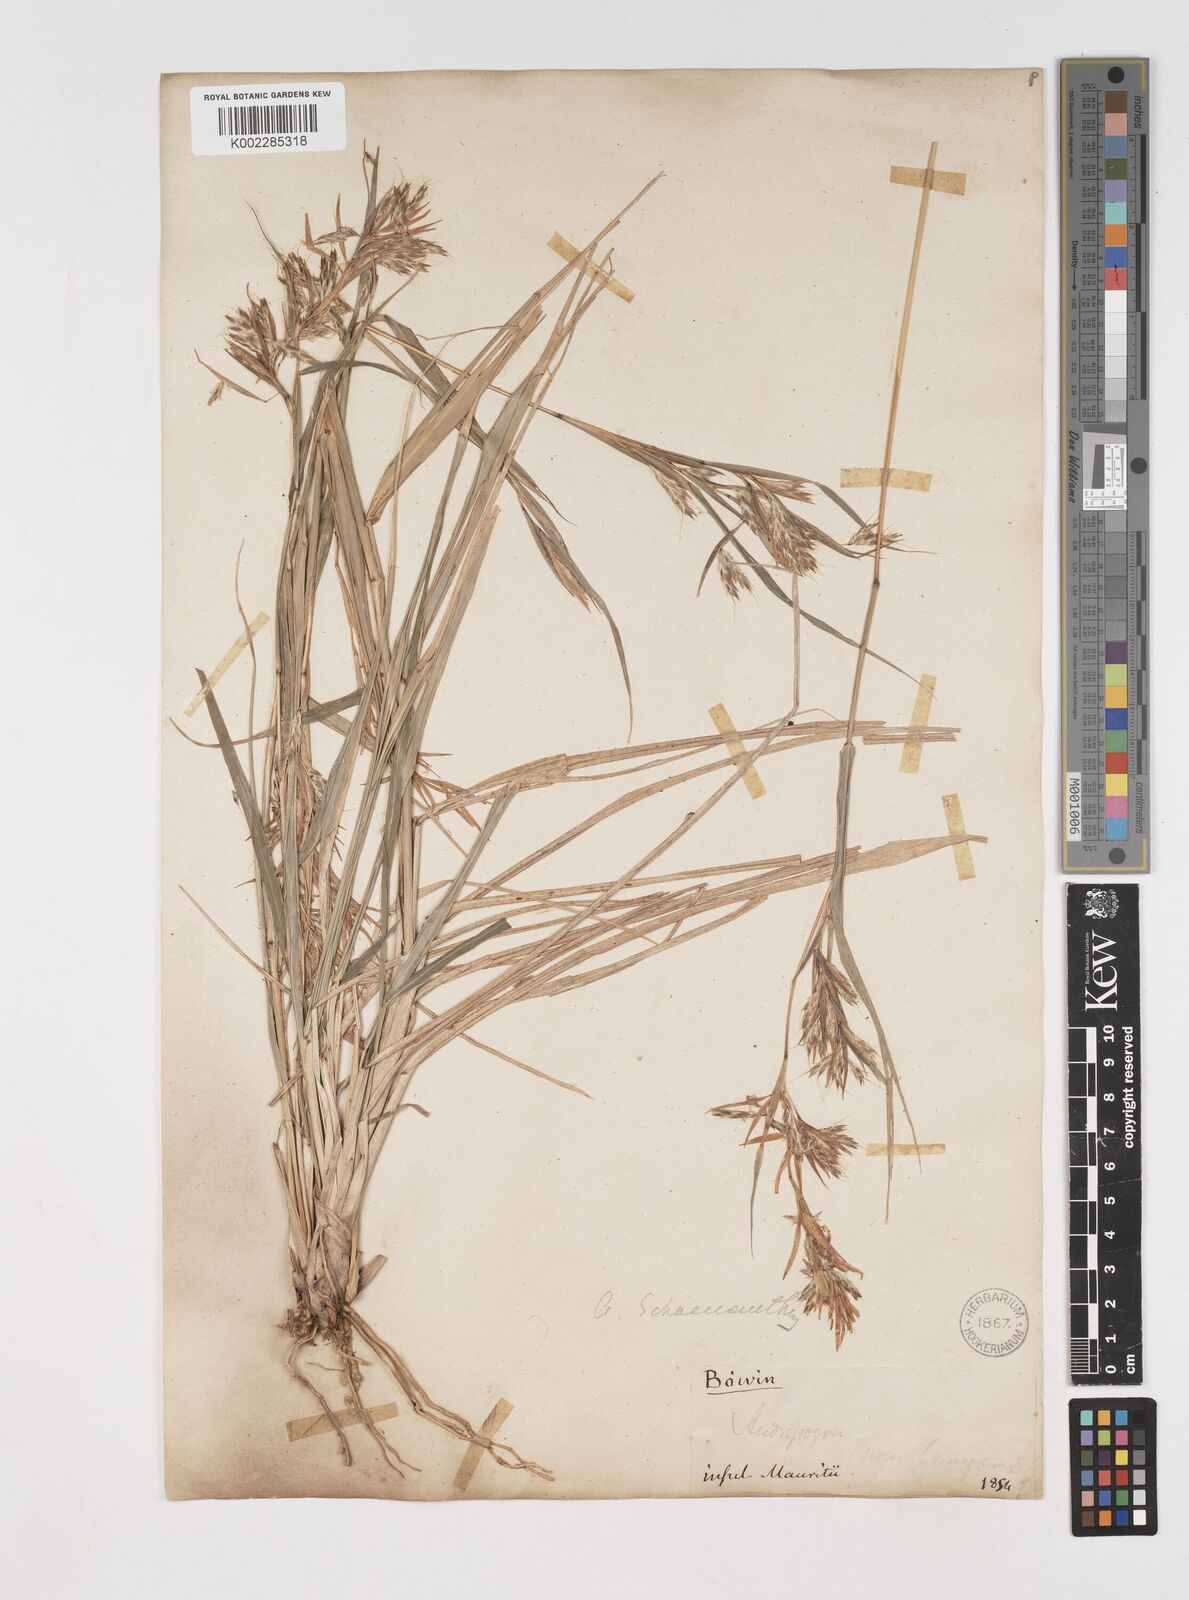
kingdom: Plantae
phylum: Tracheophyta
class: Liliopsida
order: Poales
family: Poaceae
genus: Cymbopogon
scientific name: Cymbopogon pruinosus
